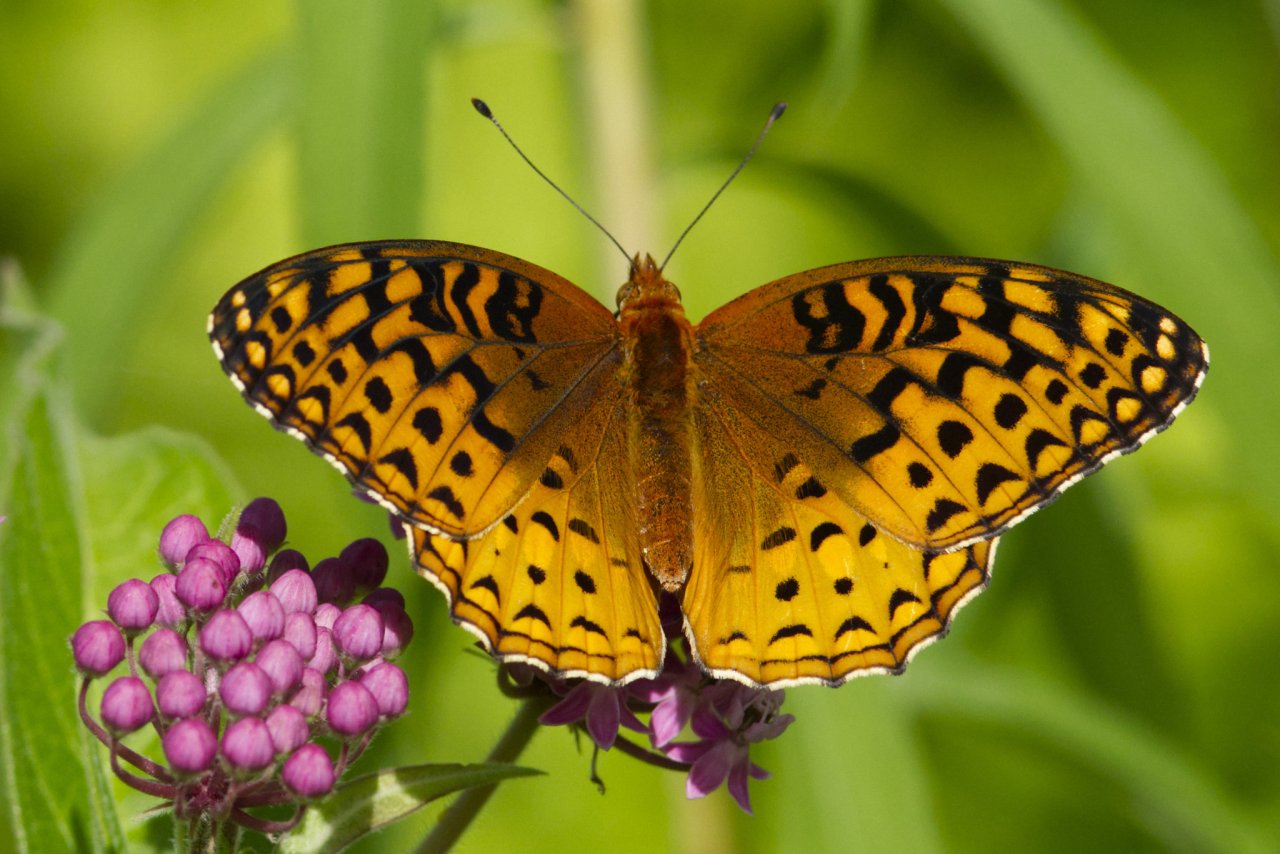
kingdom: Animalia
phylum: Arthropoda
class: Insecta
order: Lepidoptera
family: Nymphalidae
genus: Speyeria
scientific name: Speyeria aphrodite
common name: Aphrodite Fritillary
